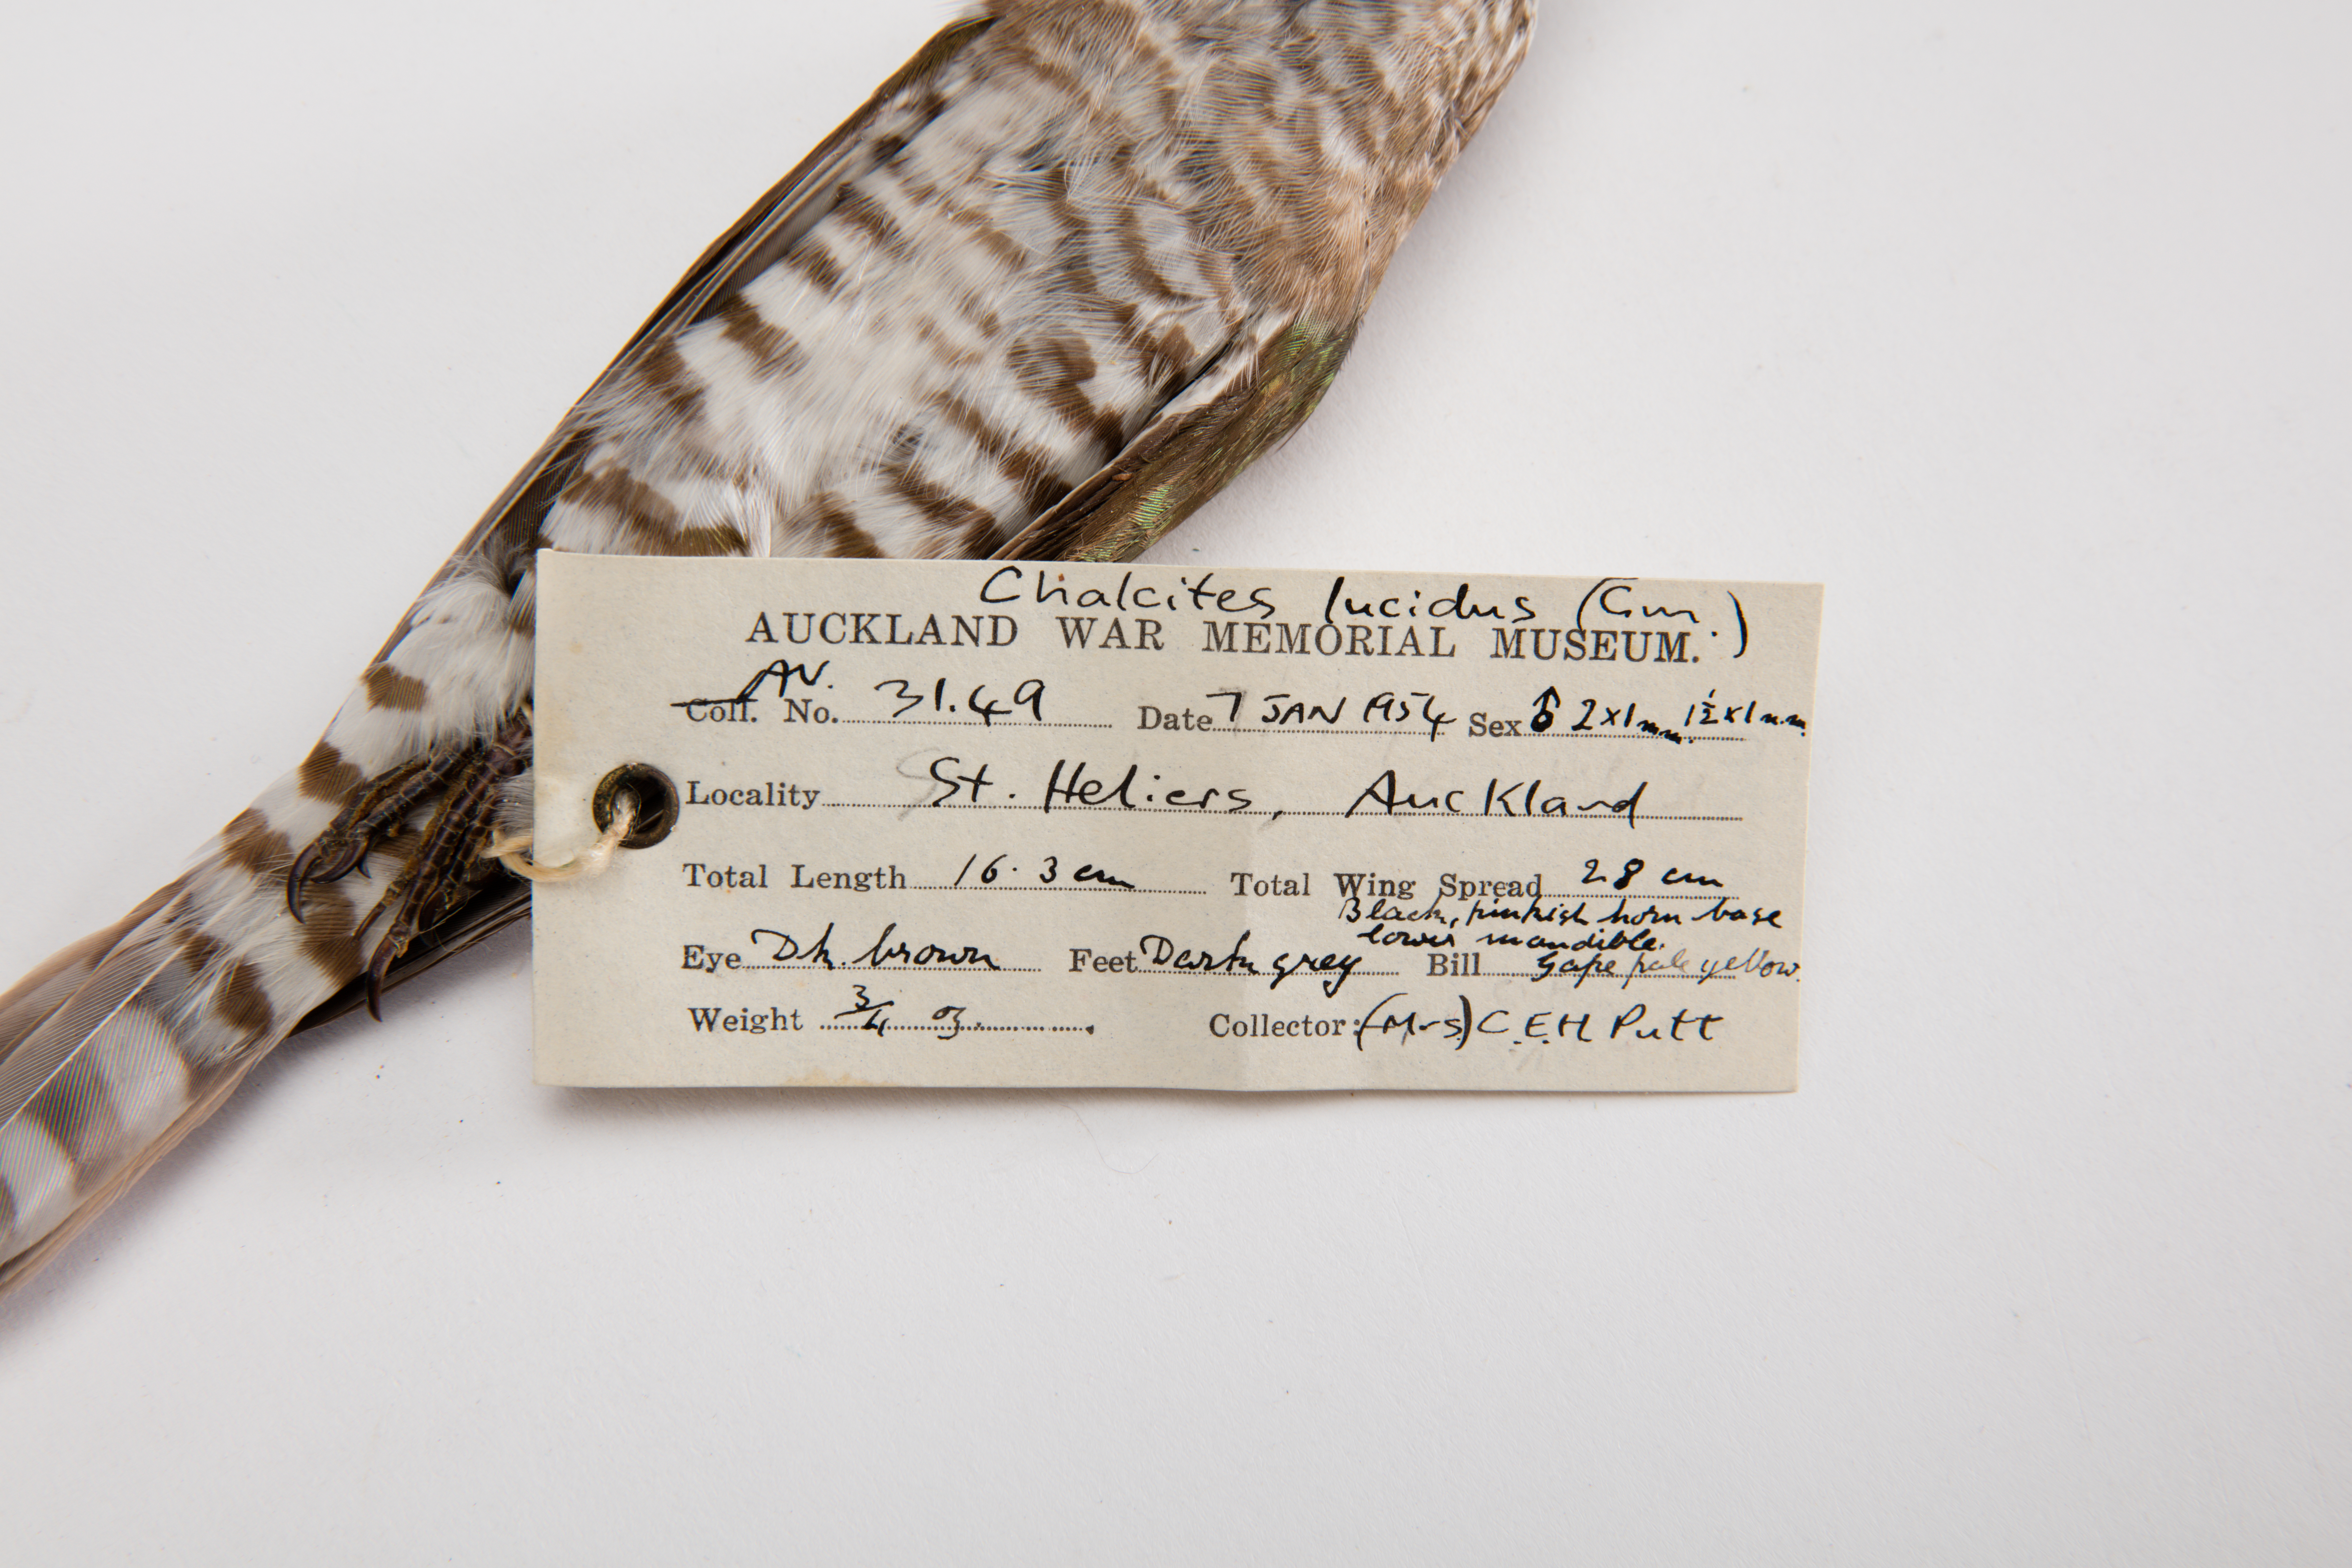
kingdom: Animalia
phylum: Chordata
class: Aves
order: Cuculiformes
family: Cuculidae
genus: Chrysococcyx
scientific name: Chrysococcyx lucidus
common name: Shining bronze cuckoo
